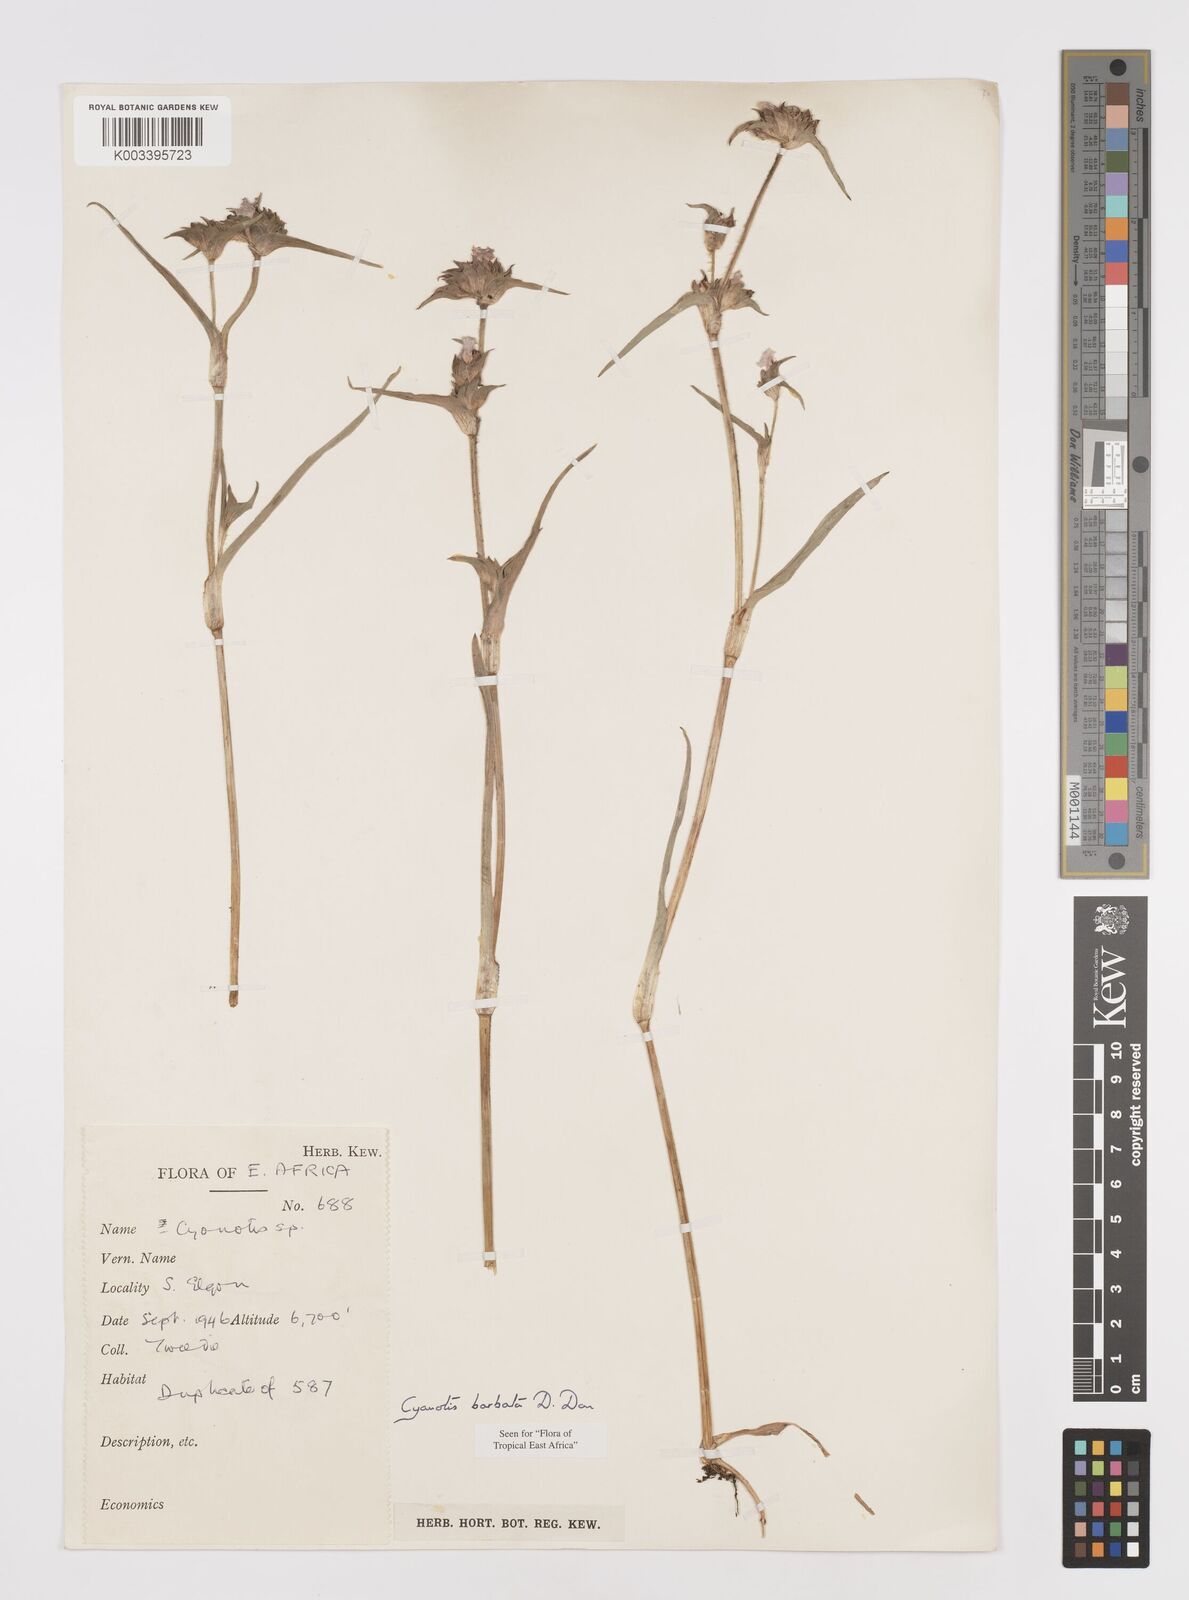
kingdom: Plantae
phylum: Tracheophyta
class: Liliopsida
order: Commelinales
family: Commelinaceae
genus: Cyanotis
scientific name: Cyanotis vaga
